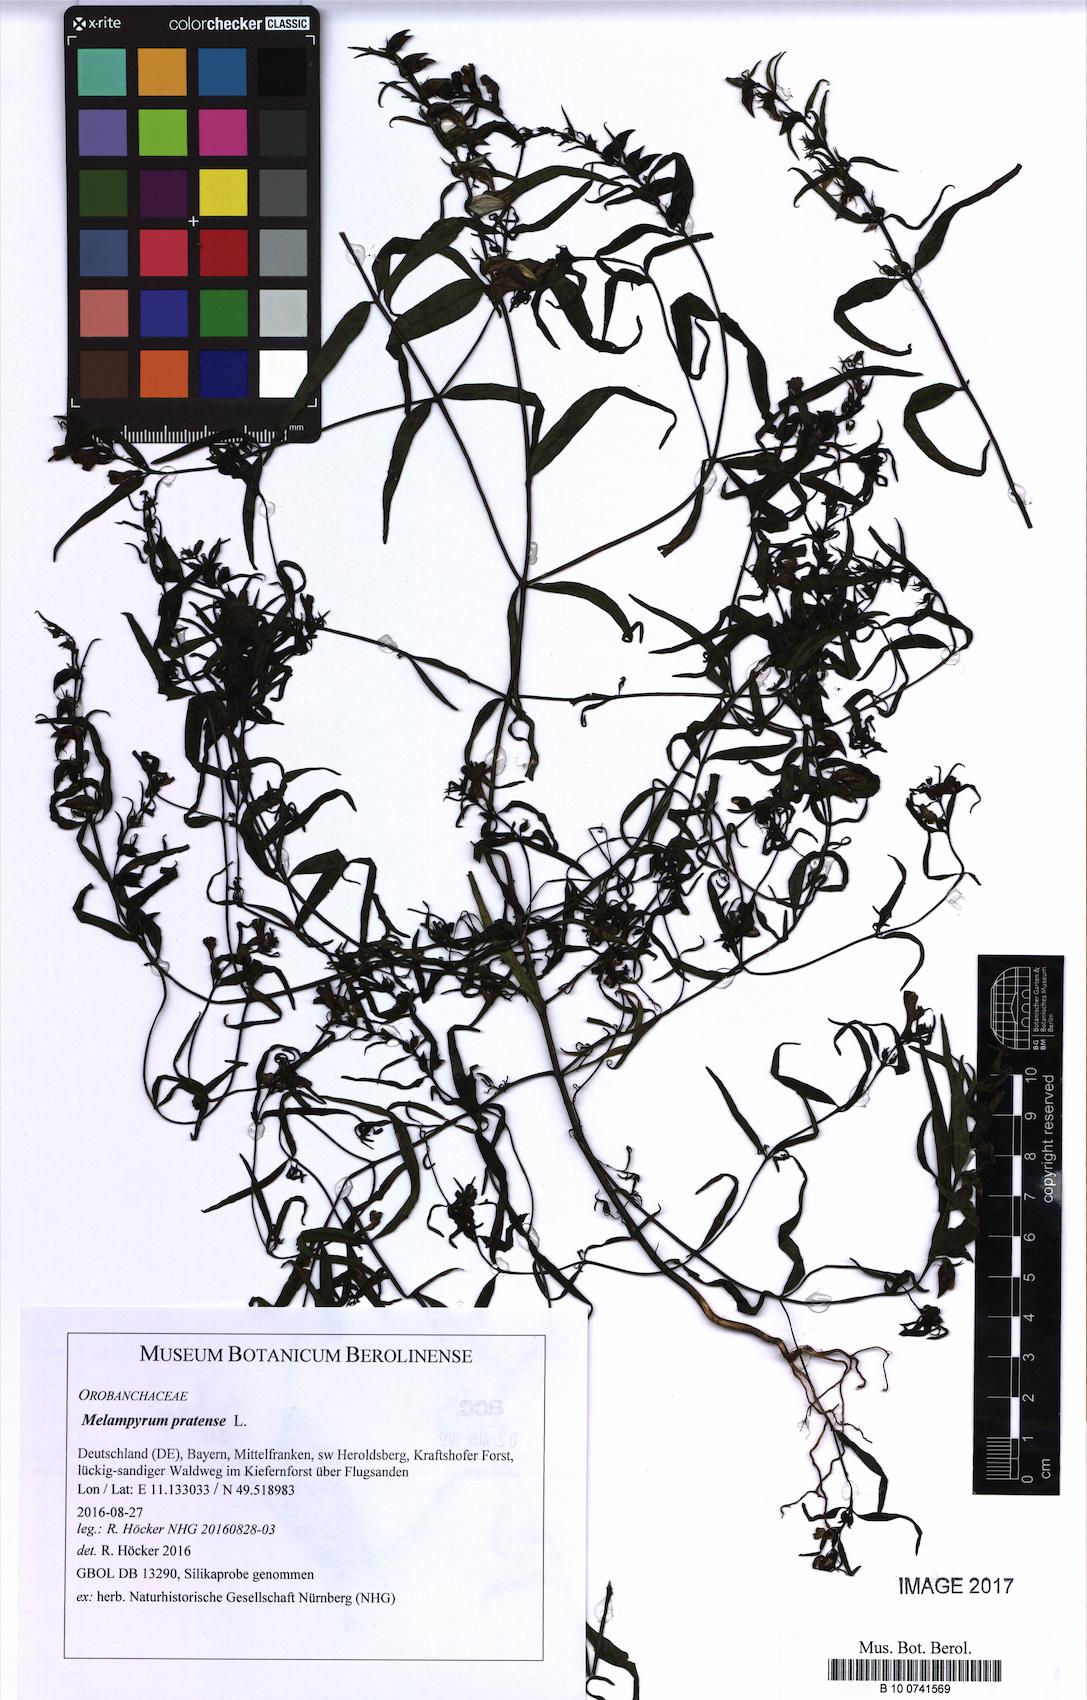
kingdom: Plantae
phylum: Tracheophyta
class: Magnoliopsida
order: Lamiales
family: Orobanchaceae
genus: Melampyrum
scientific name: Melampyrum pratense
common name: Common cow-wheat
